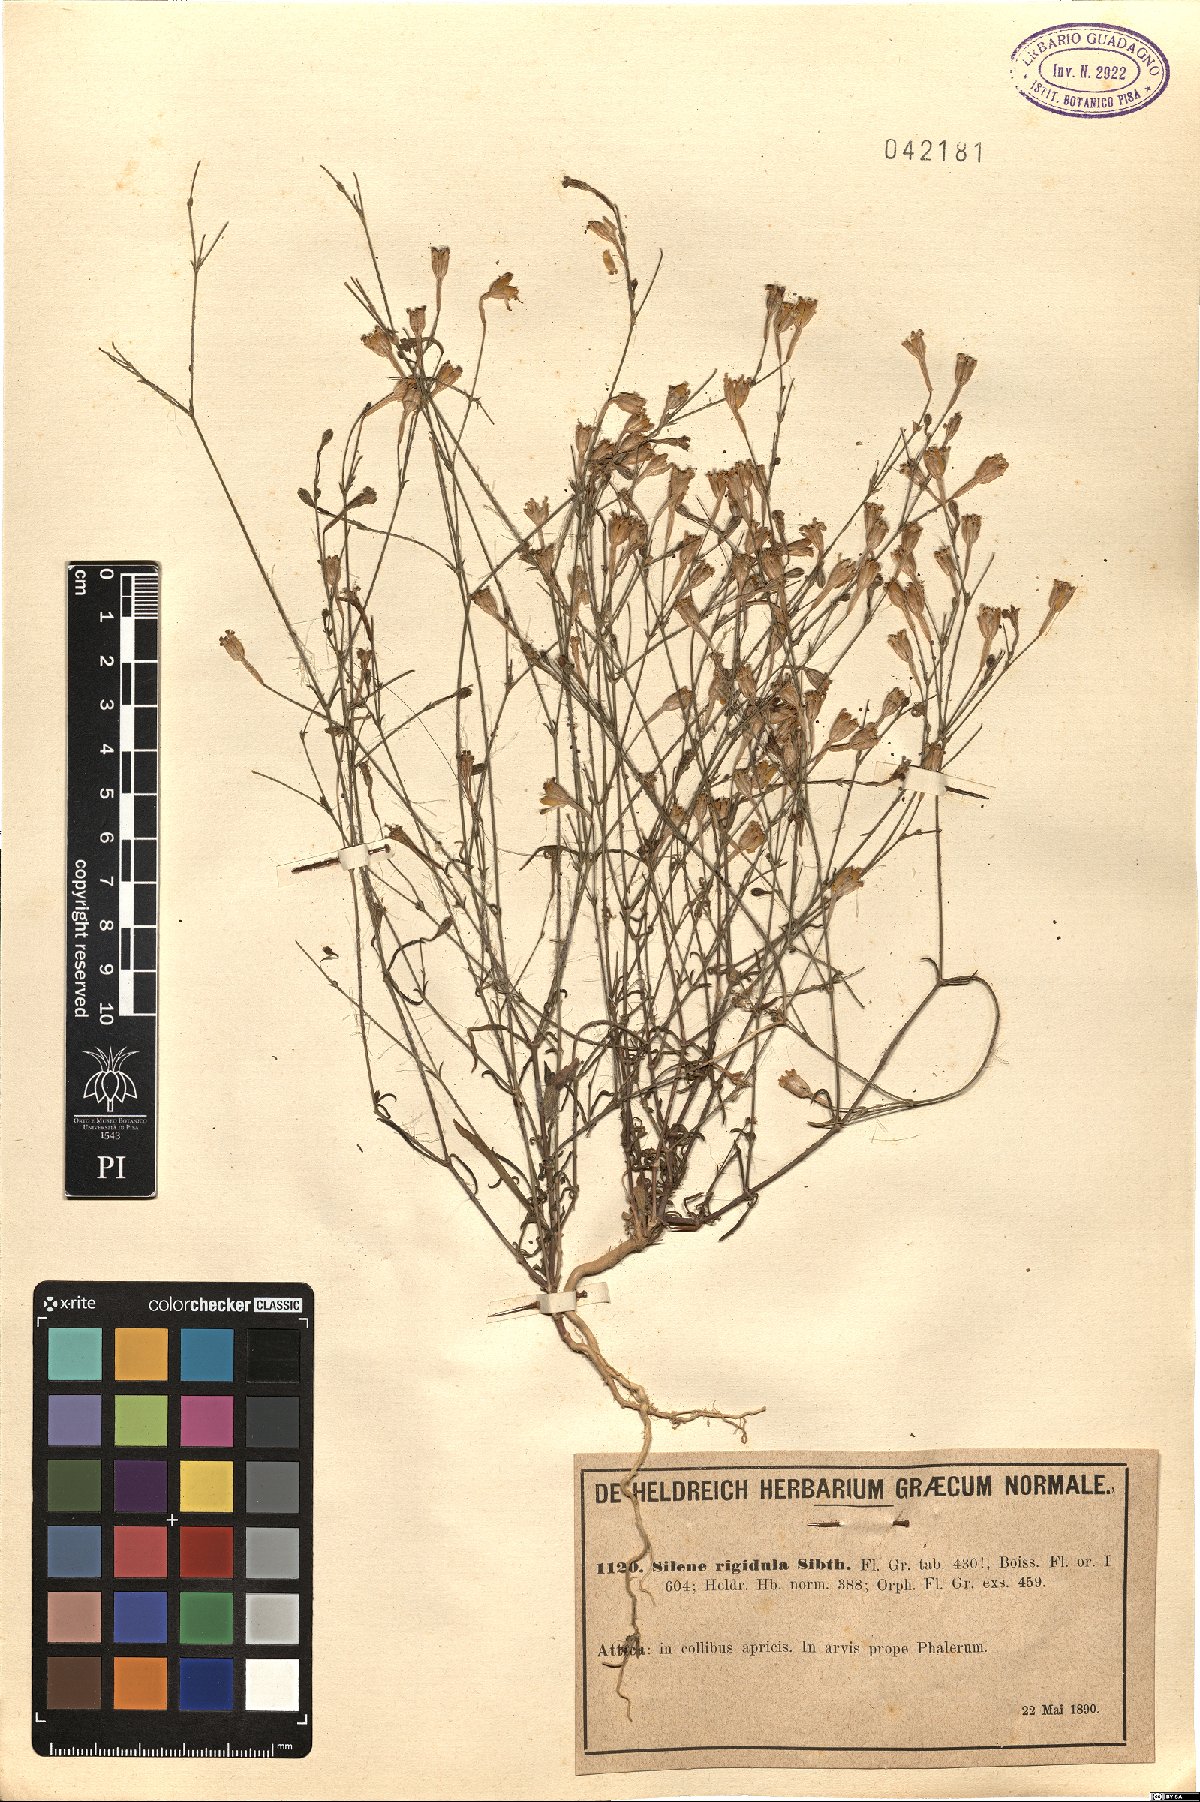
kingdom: Plantae
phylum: Tracheophyta
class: Magnoliopsida
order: Caryophyllales
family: Caryophyllaceae
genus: Silene
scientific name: Silene corinthiaca
